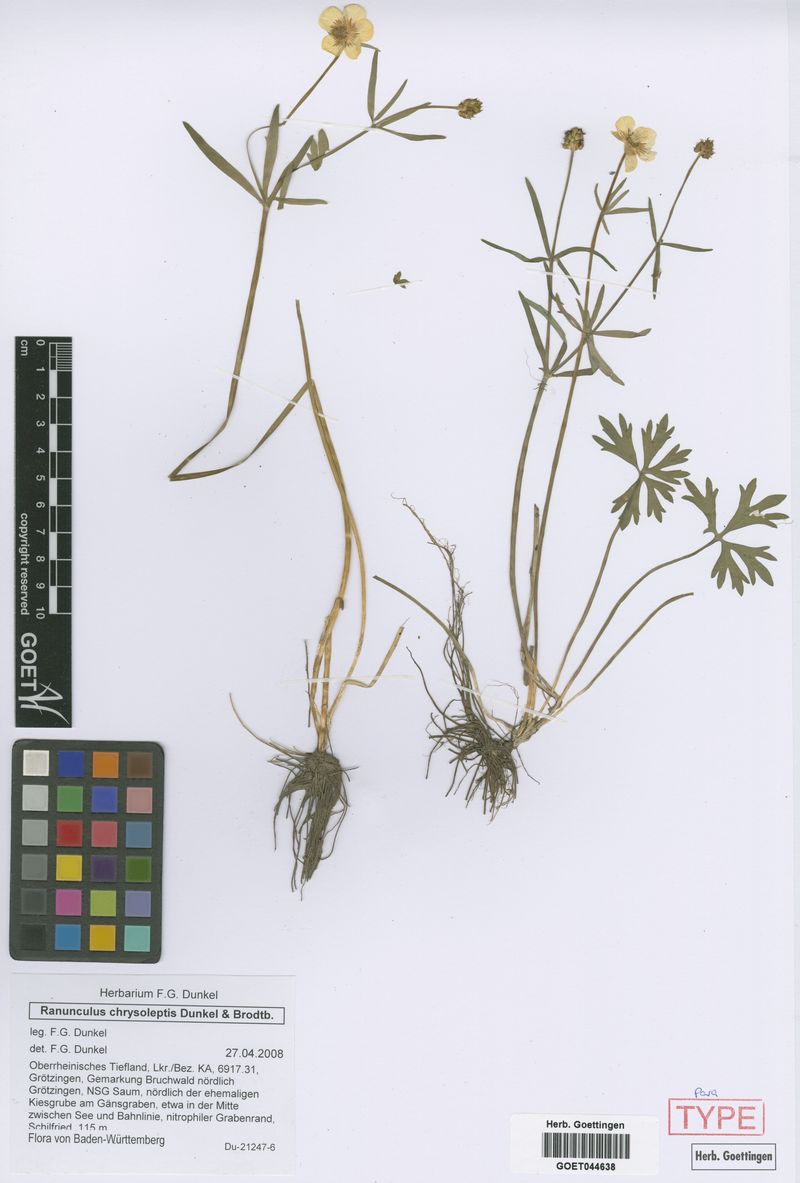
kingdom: Plantae
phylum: Tracheophyta
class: Magnoliopsida
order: Ranunculales
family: Ranunculaceae
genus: Ranunculus
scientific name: Ranunculus chrysoleptos
